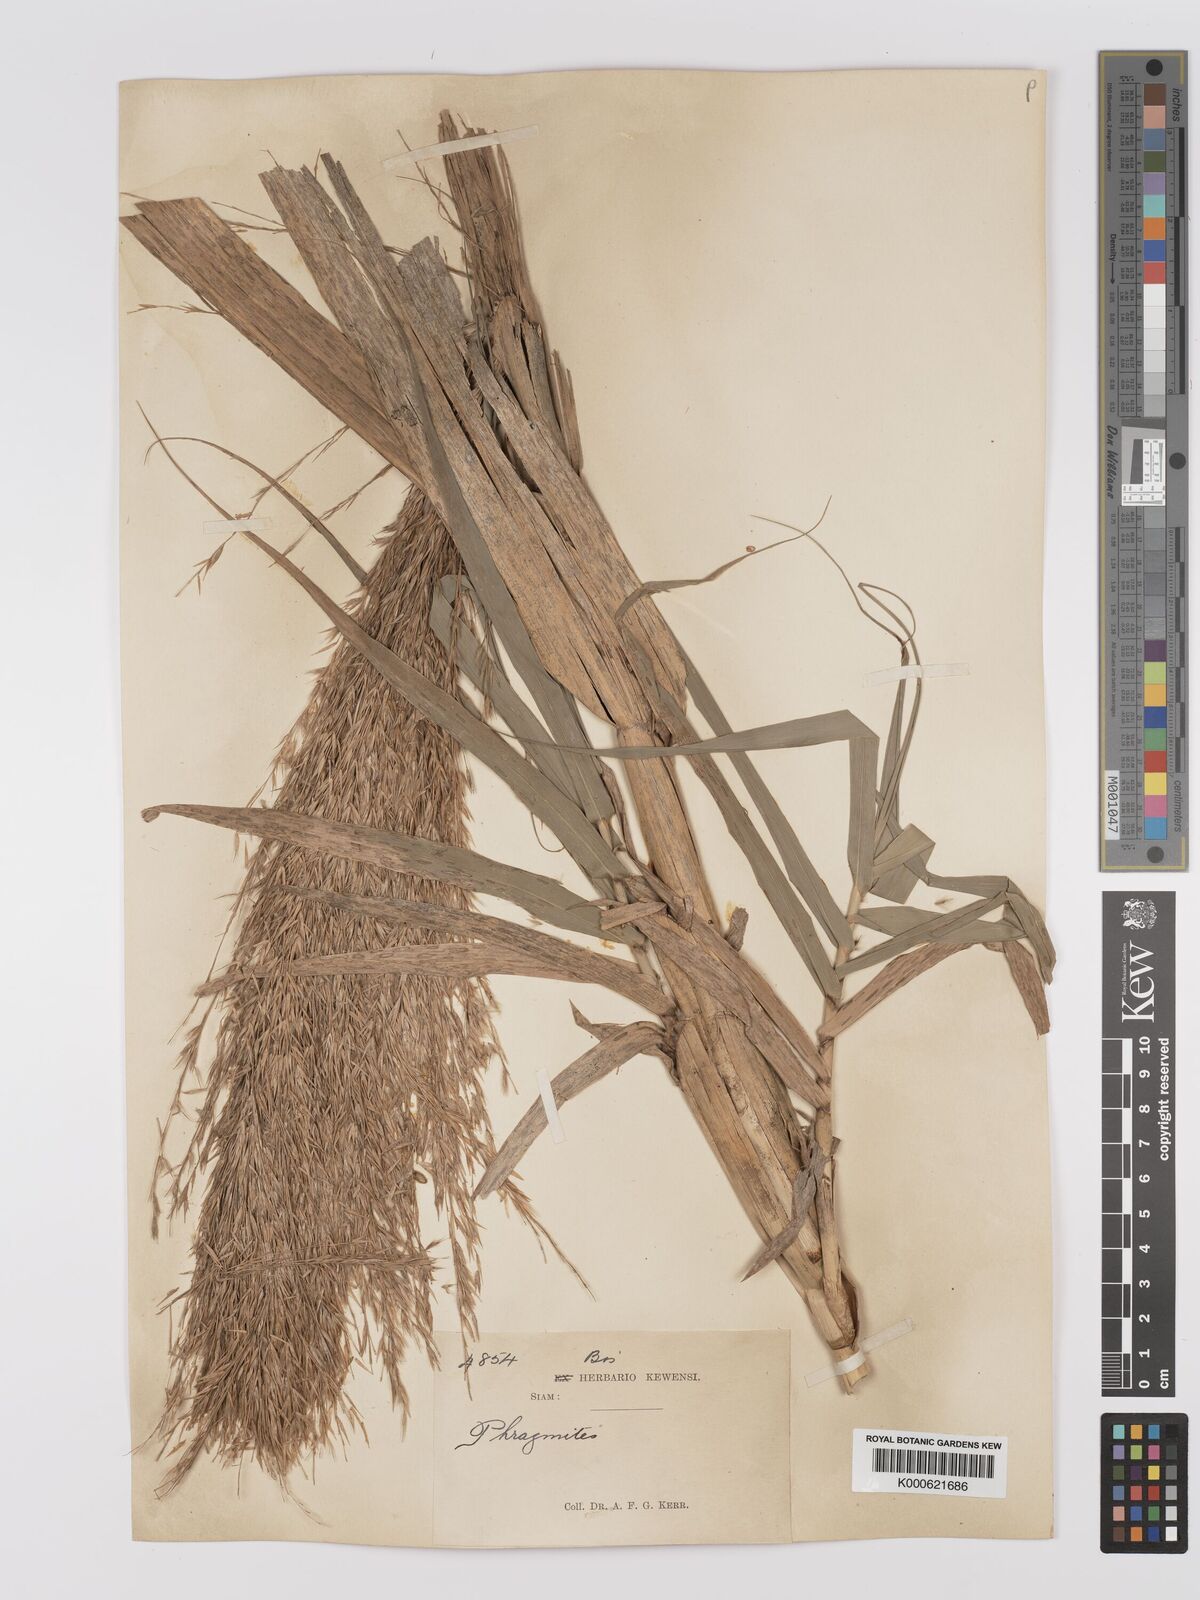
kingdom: Plantae
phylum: Tracheophyta
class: Liliopsida
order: Poales
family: Poaceae
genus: Arundo
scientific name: Arundo donax
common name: Giant reed
